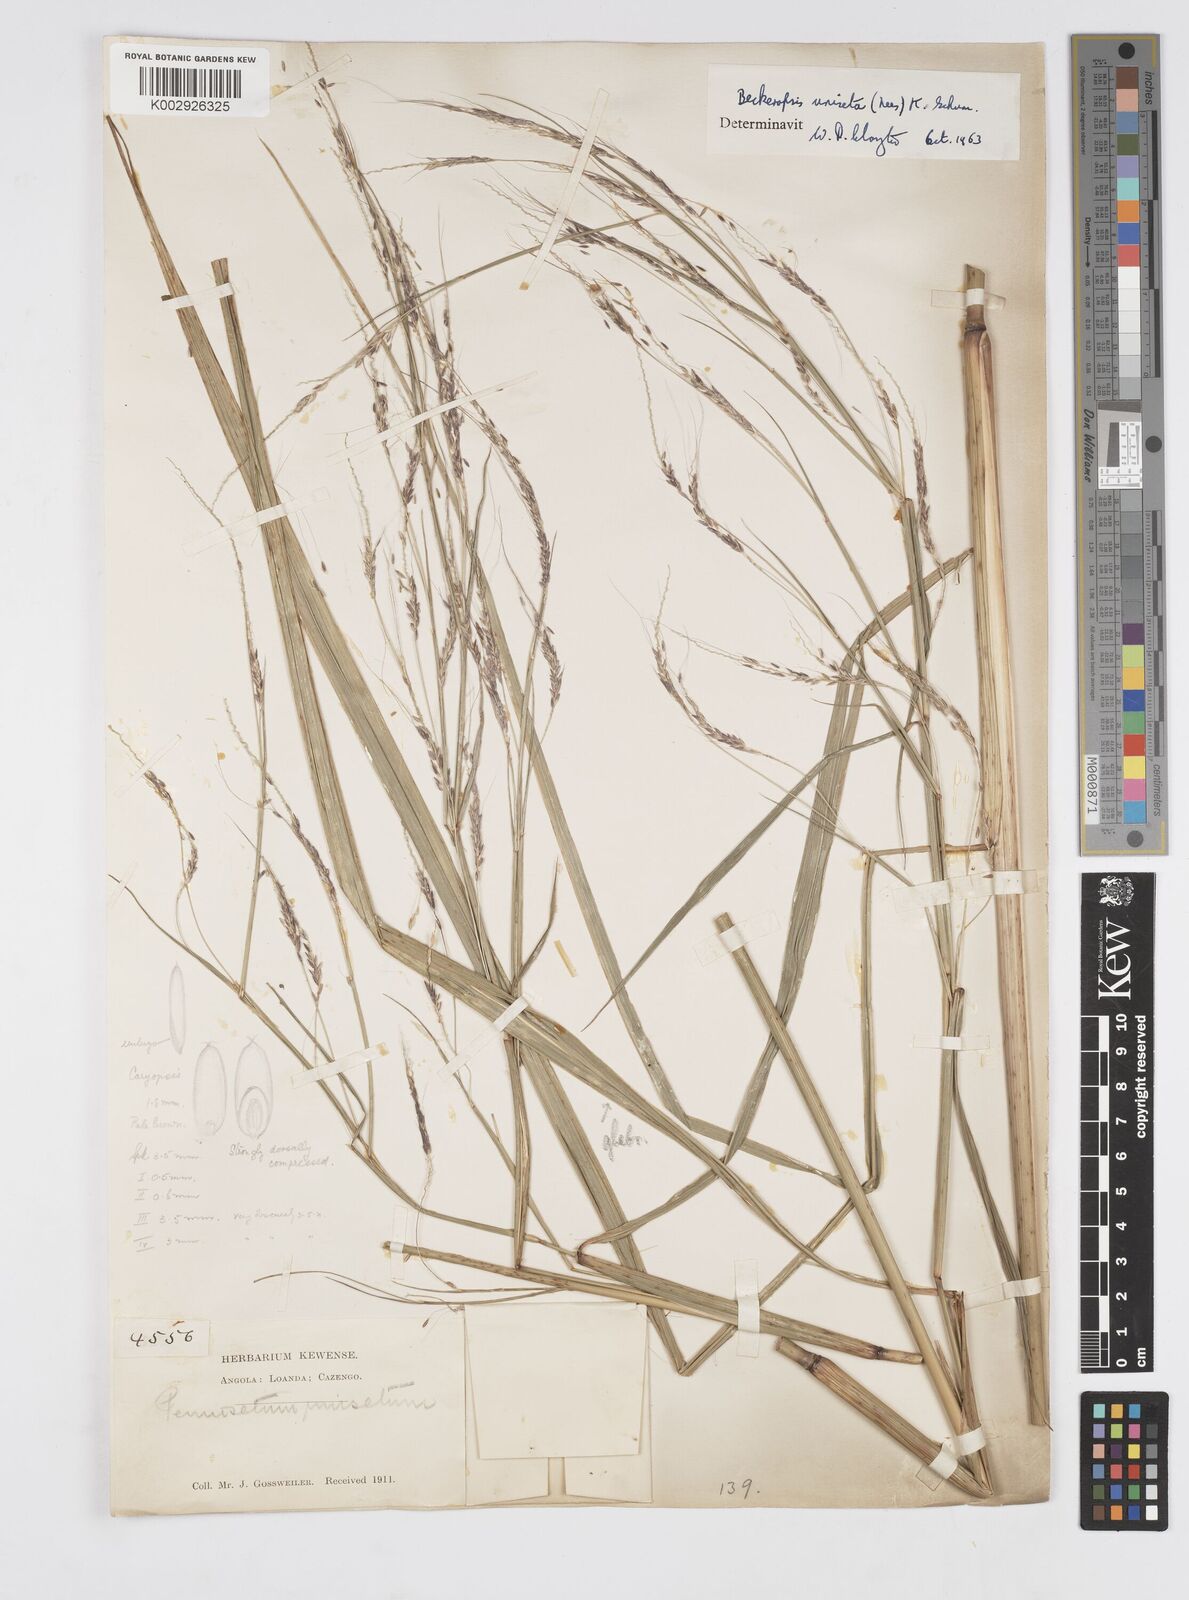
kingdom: Plantae
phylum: Tracheophyta
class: Liliopsida
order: Poales
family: Poaceae
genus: Cenchrus
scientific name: Cenchrus unisetus
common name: Natal grass
